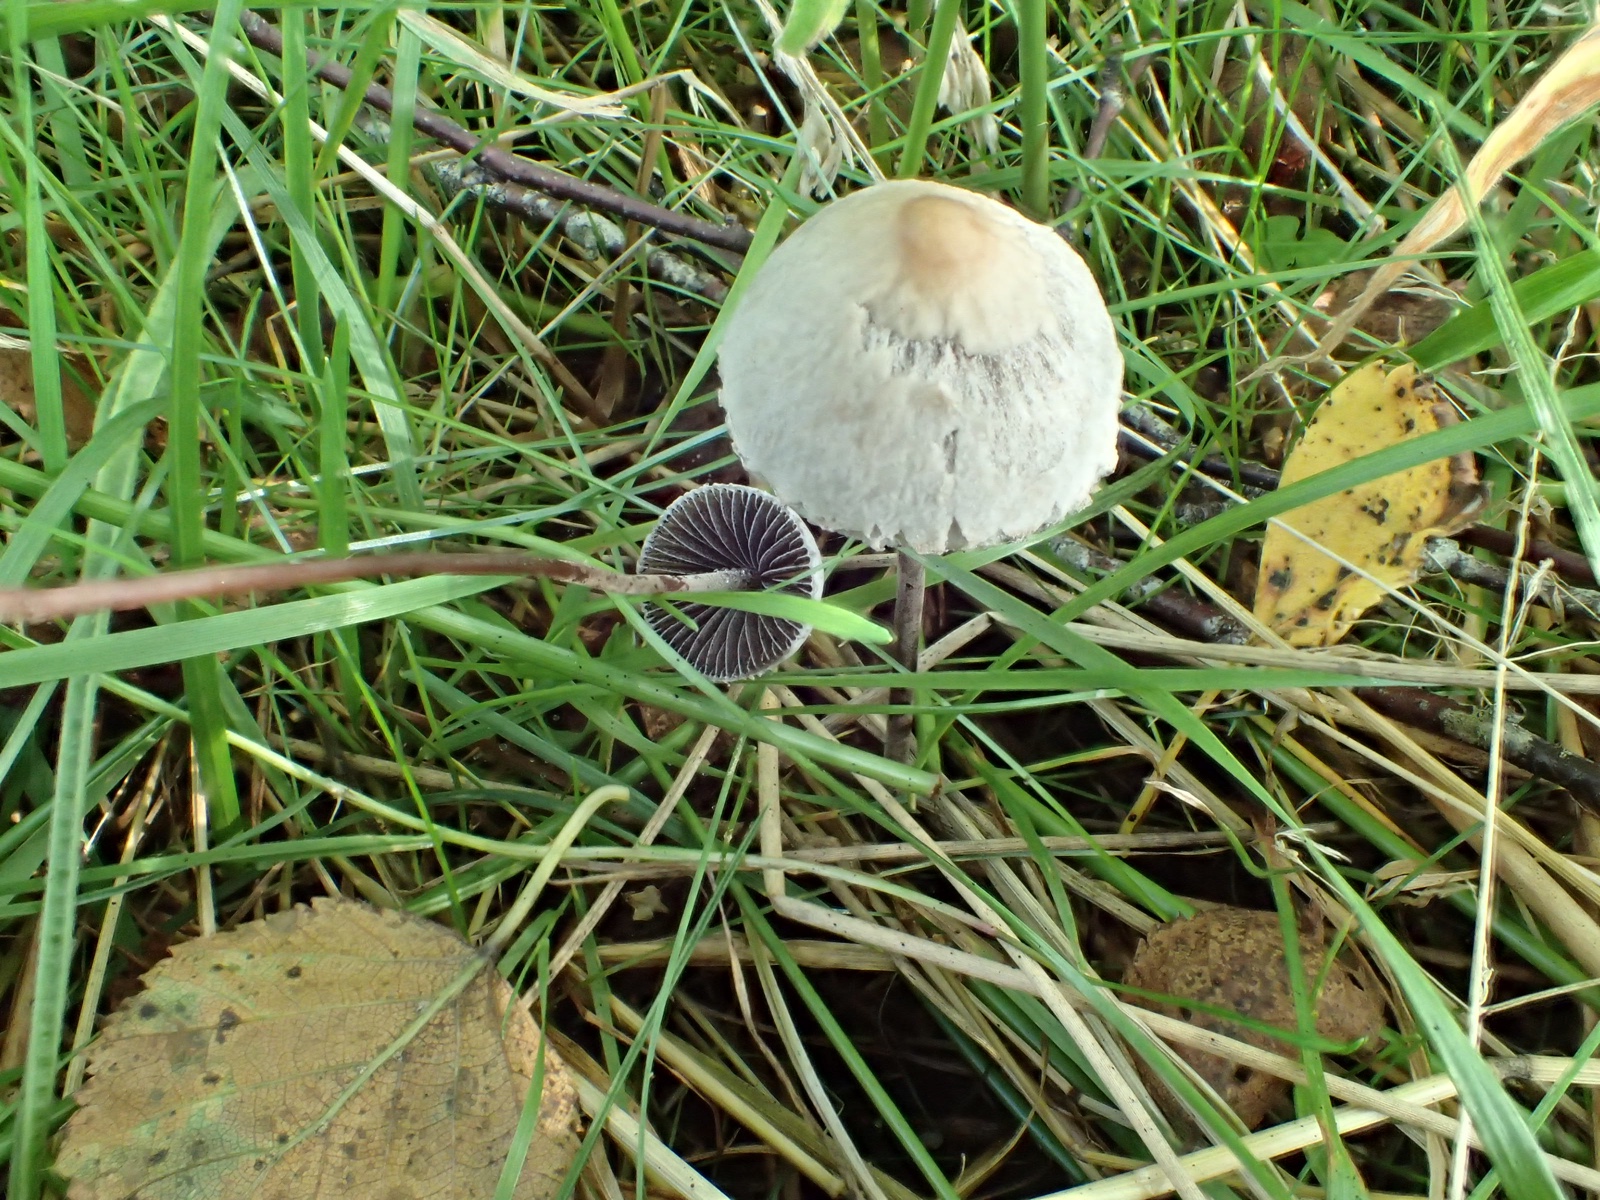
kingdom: Fungi
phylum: Basidiomycota
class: Agaricomycetes
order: Agaricales
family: Bolbitiaceae
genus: Panaeolus
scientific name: Panaeolus papilionaceus
